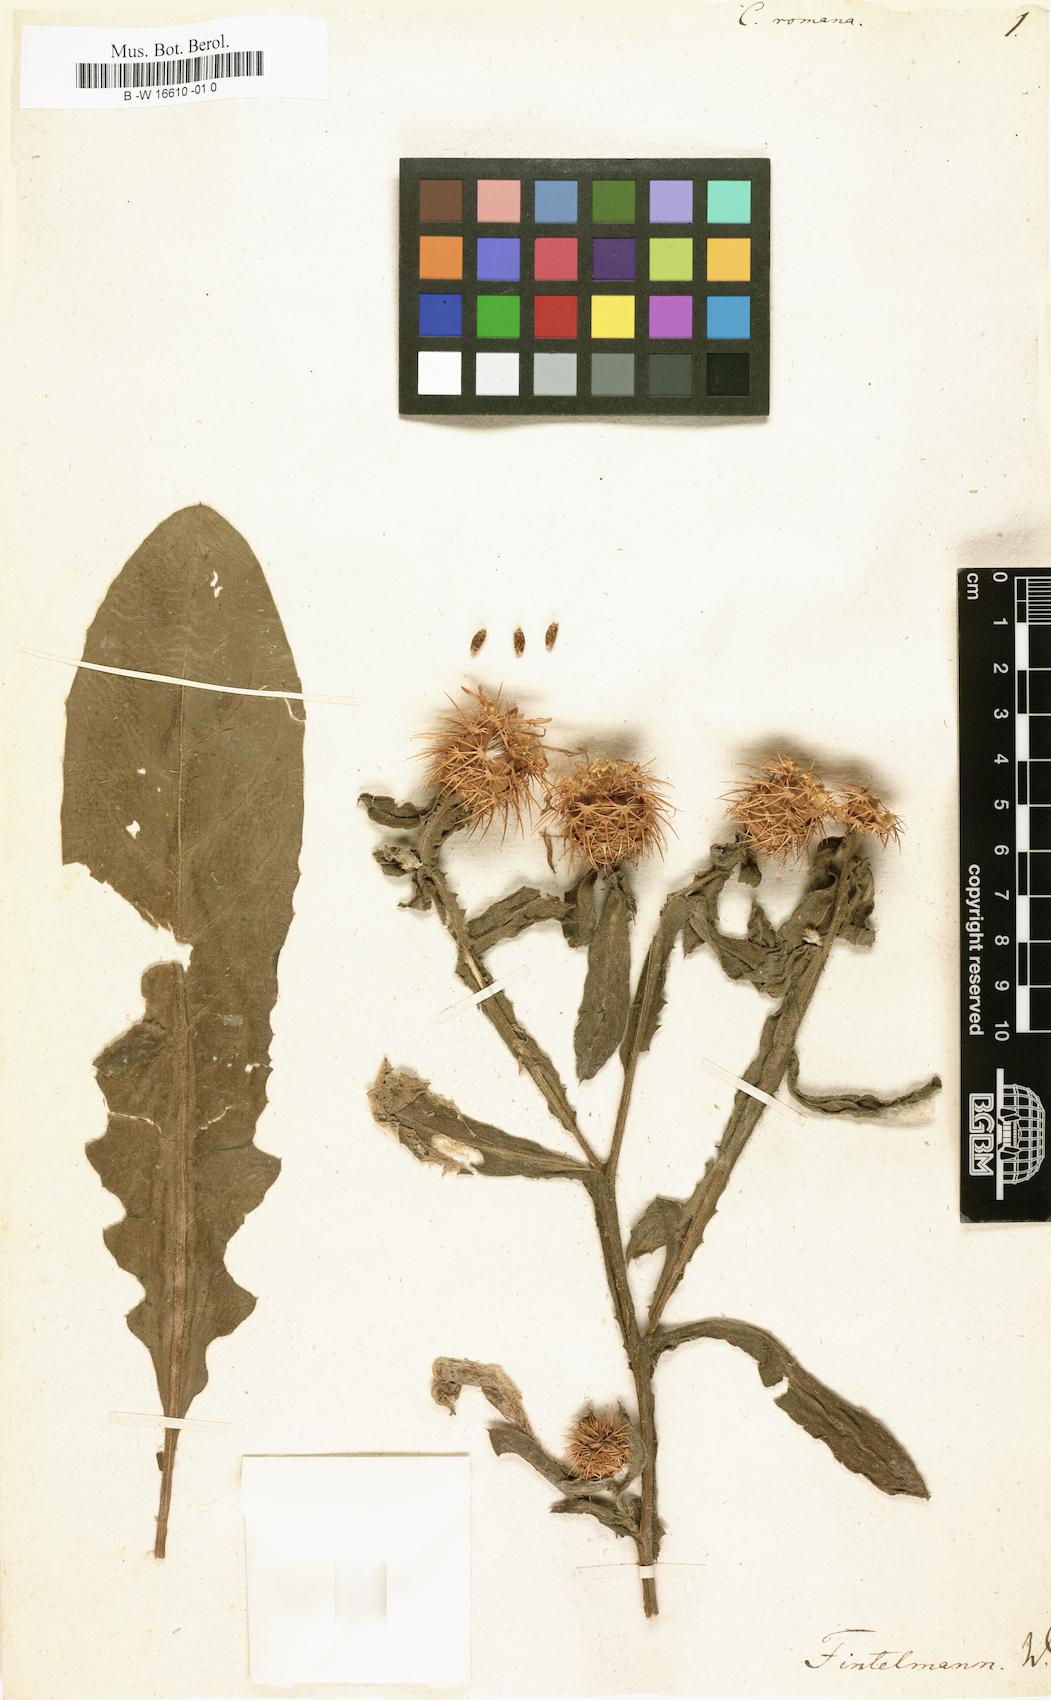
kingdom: Plantae
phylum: Tracheophyta
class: Magnoliopsida
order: Asterales
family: Asteraceae
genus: Centaurea
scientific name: Centaurea napifolia
